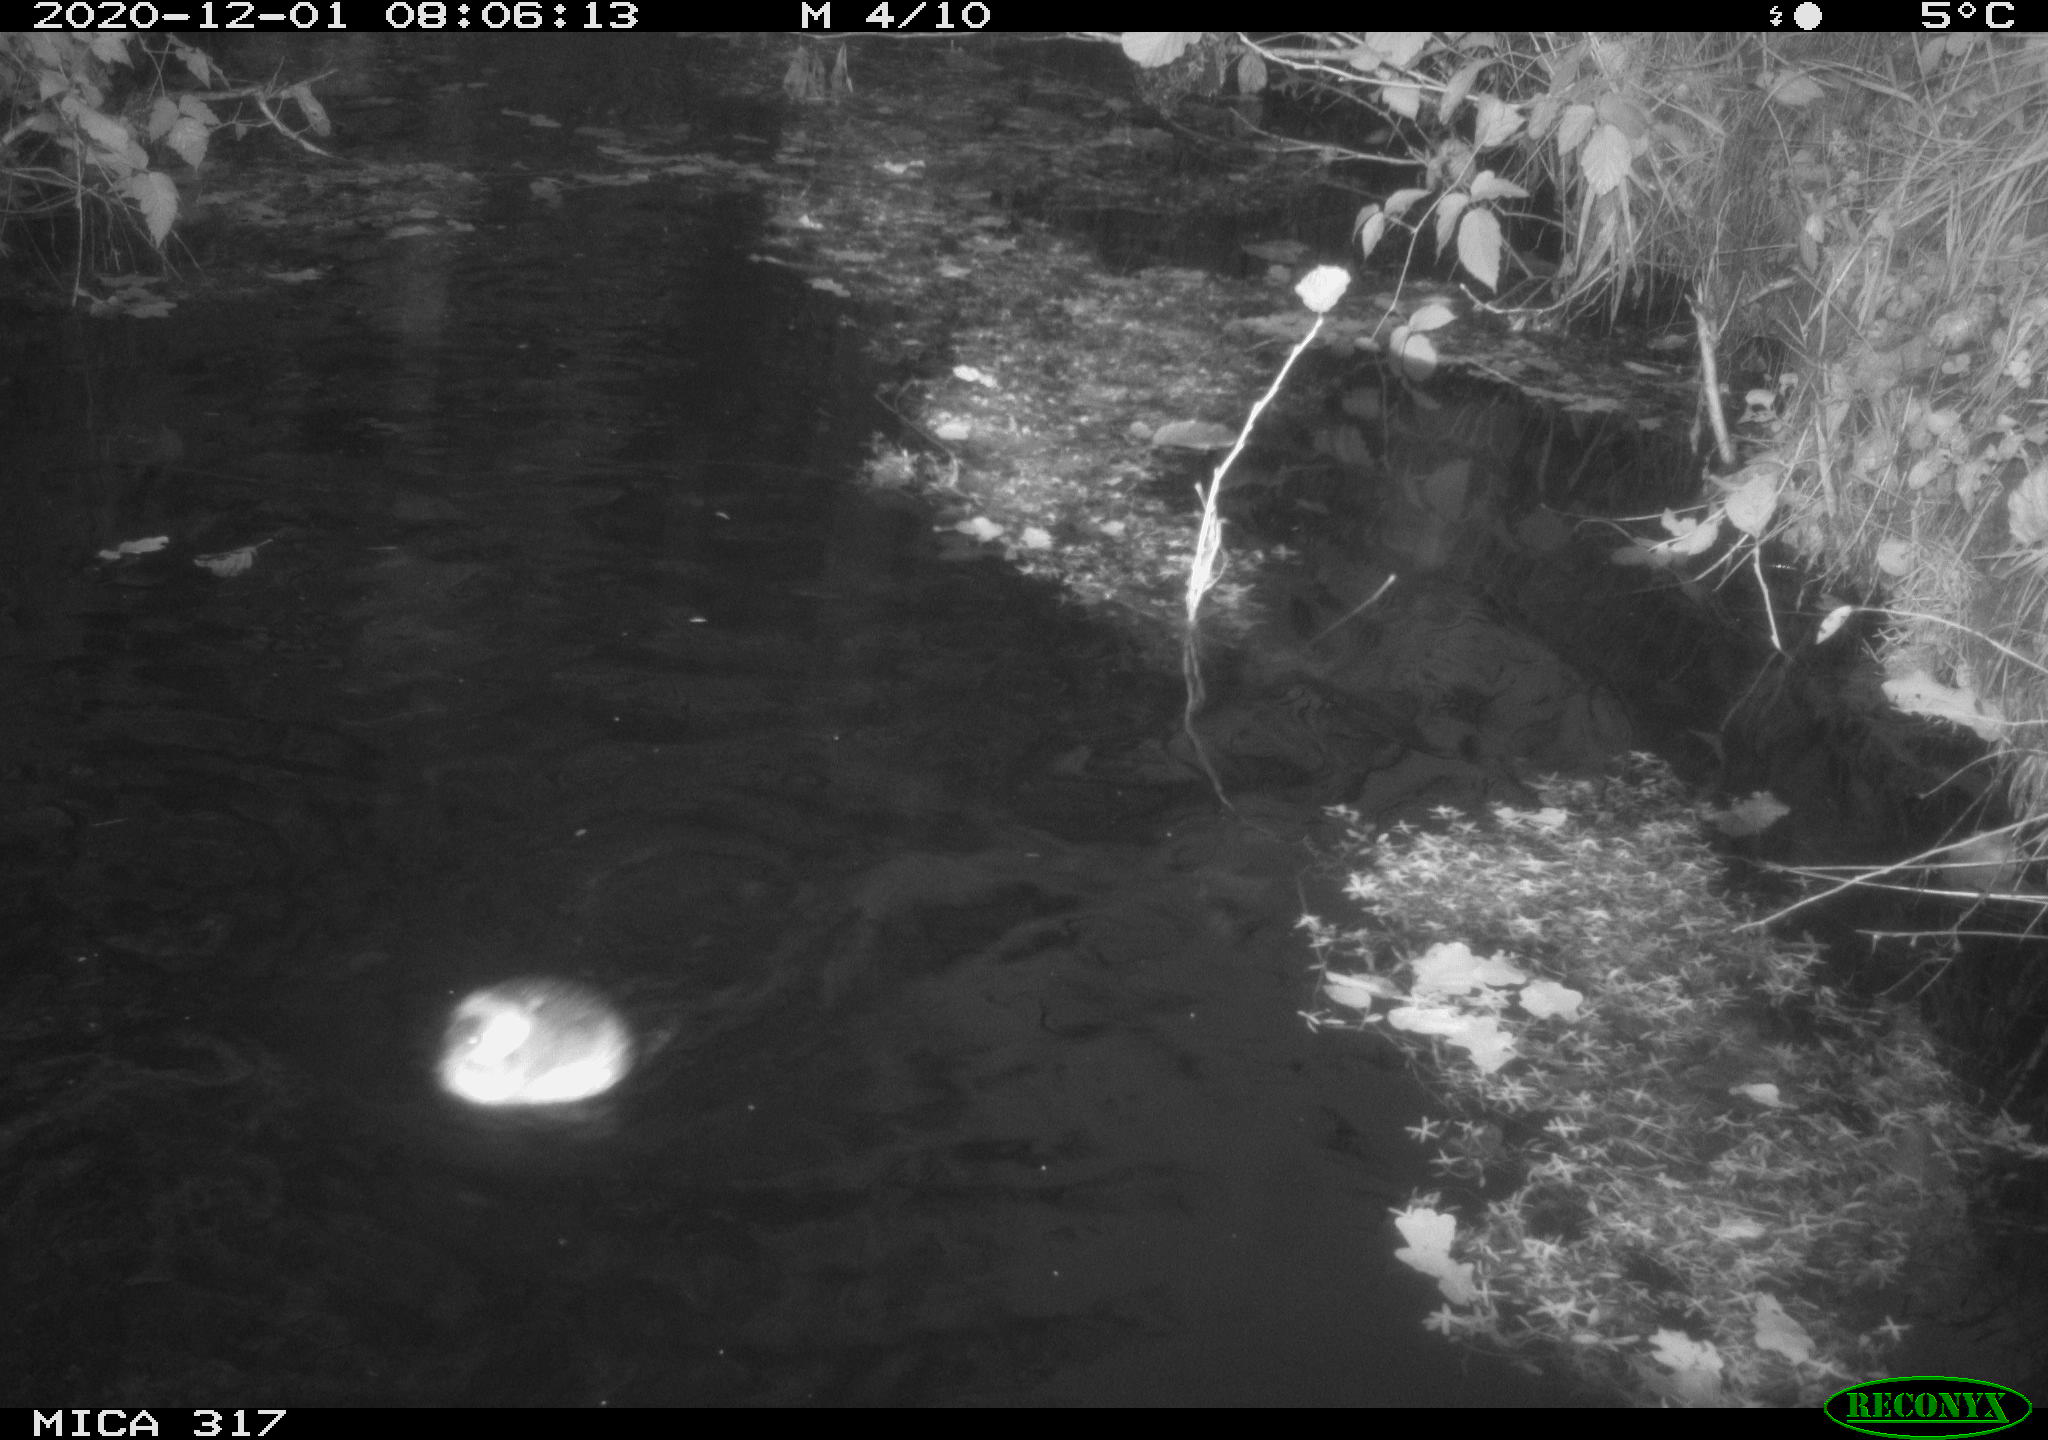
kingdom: Animalia
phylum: Chordata
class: Aves
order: Podicipediformes
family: Podicipedidae
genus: Tachybaptus
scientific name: Tachybaptus ruficollis
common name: Little grebe
